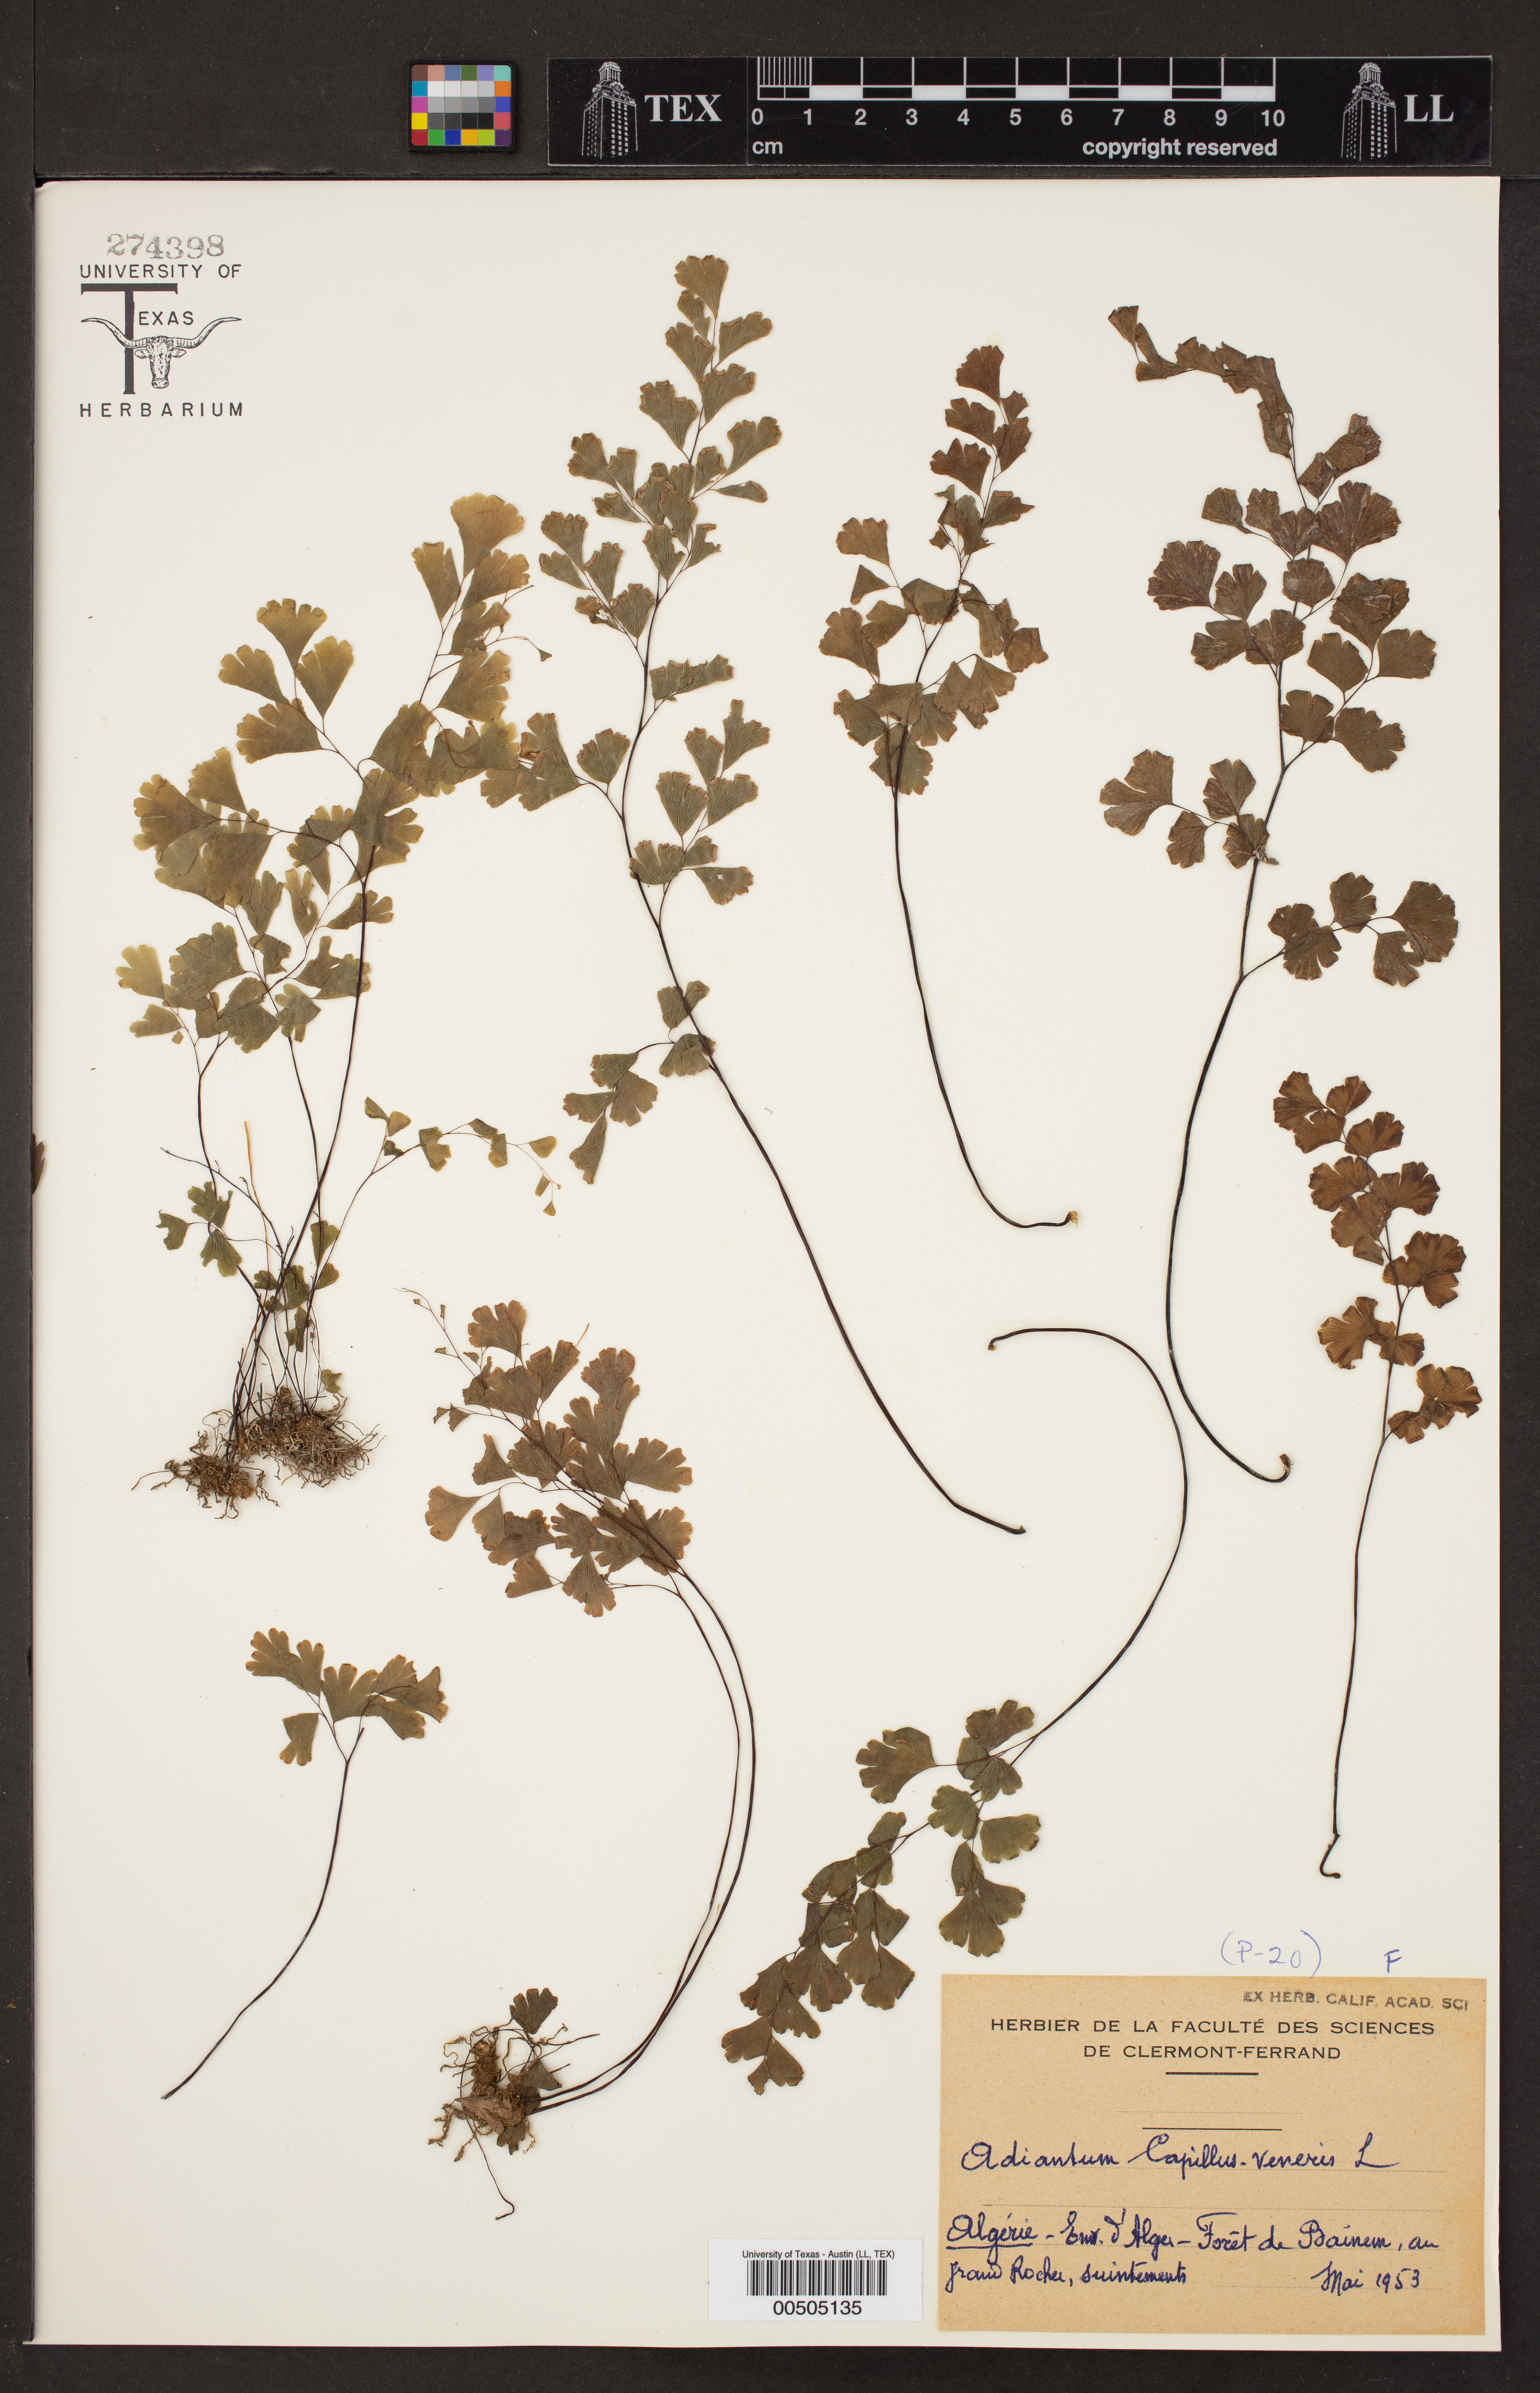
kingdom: Plantae
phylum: Tracheophyta
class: Polypodiopsida
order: Polypodiales
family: Pteridaceae
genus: Adiantum
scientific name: Adiantum capillus-veneris
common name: Maidenhair fern
